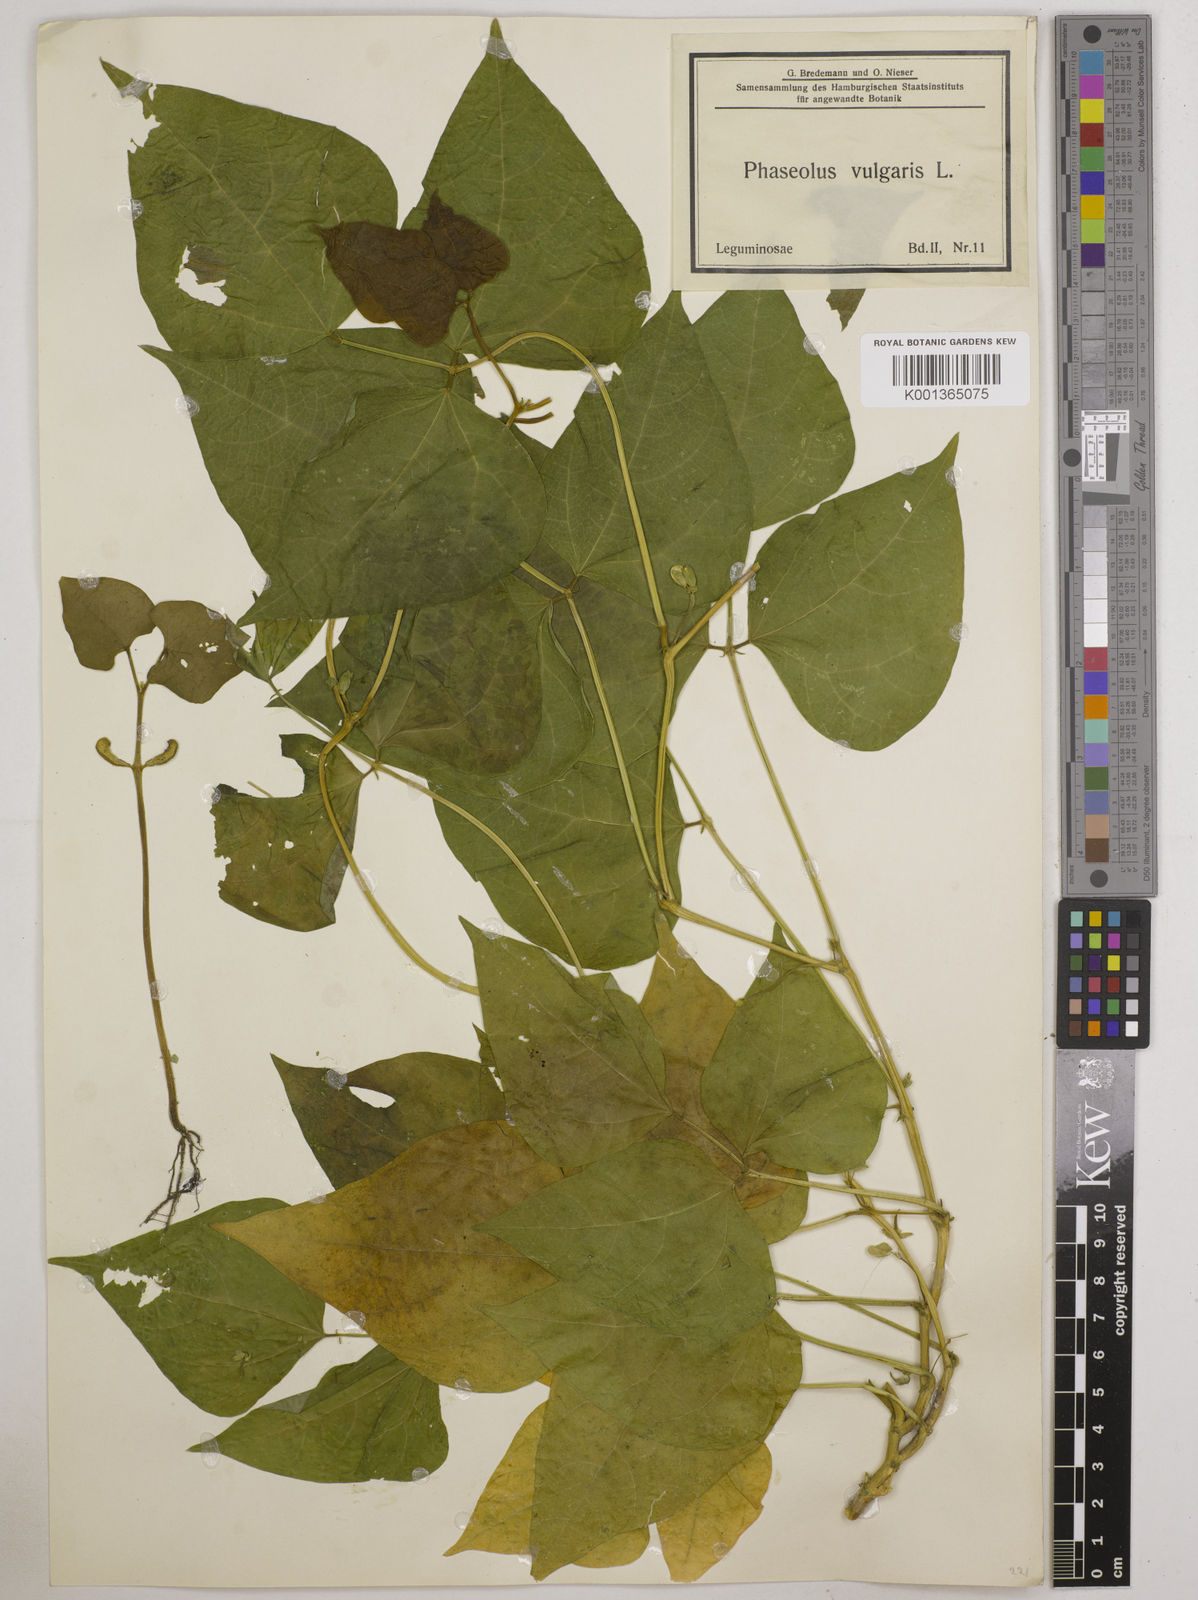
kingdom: Plantae
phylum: Tracheophyta
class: Magnoliopsida
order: Fabales
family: Fabaceae
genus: Phaseolus
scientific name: Phaseolus vulgaris
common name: Bean
